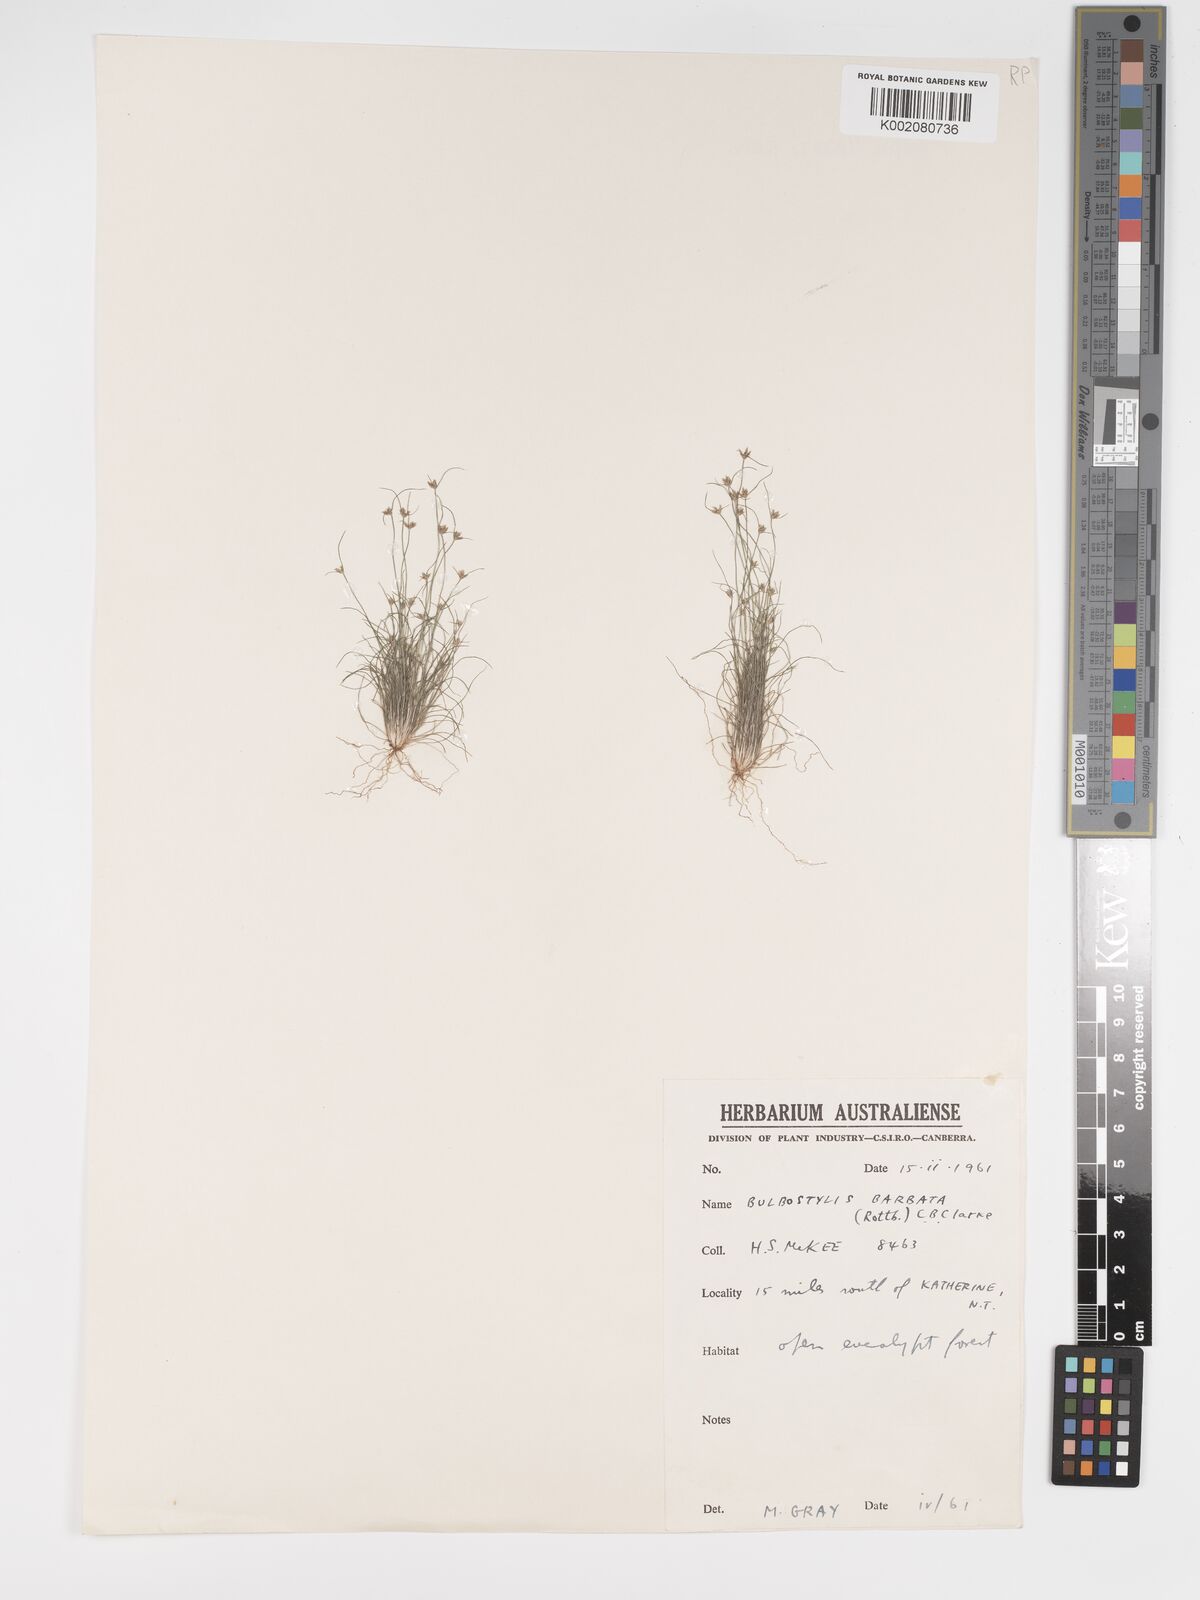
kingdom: Plantae
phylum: Tracheophyta
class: Liliopsida
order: Poales
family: Cyperaceae
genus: Bulbostylis
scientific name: Bulbostylis barbata
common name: Watergrass
